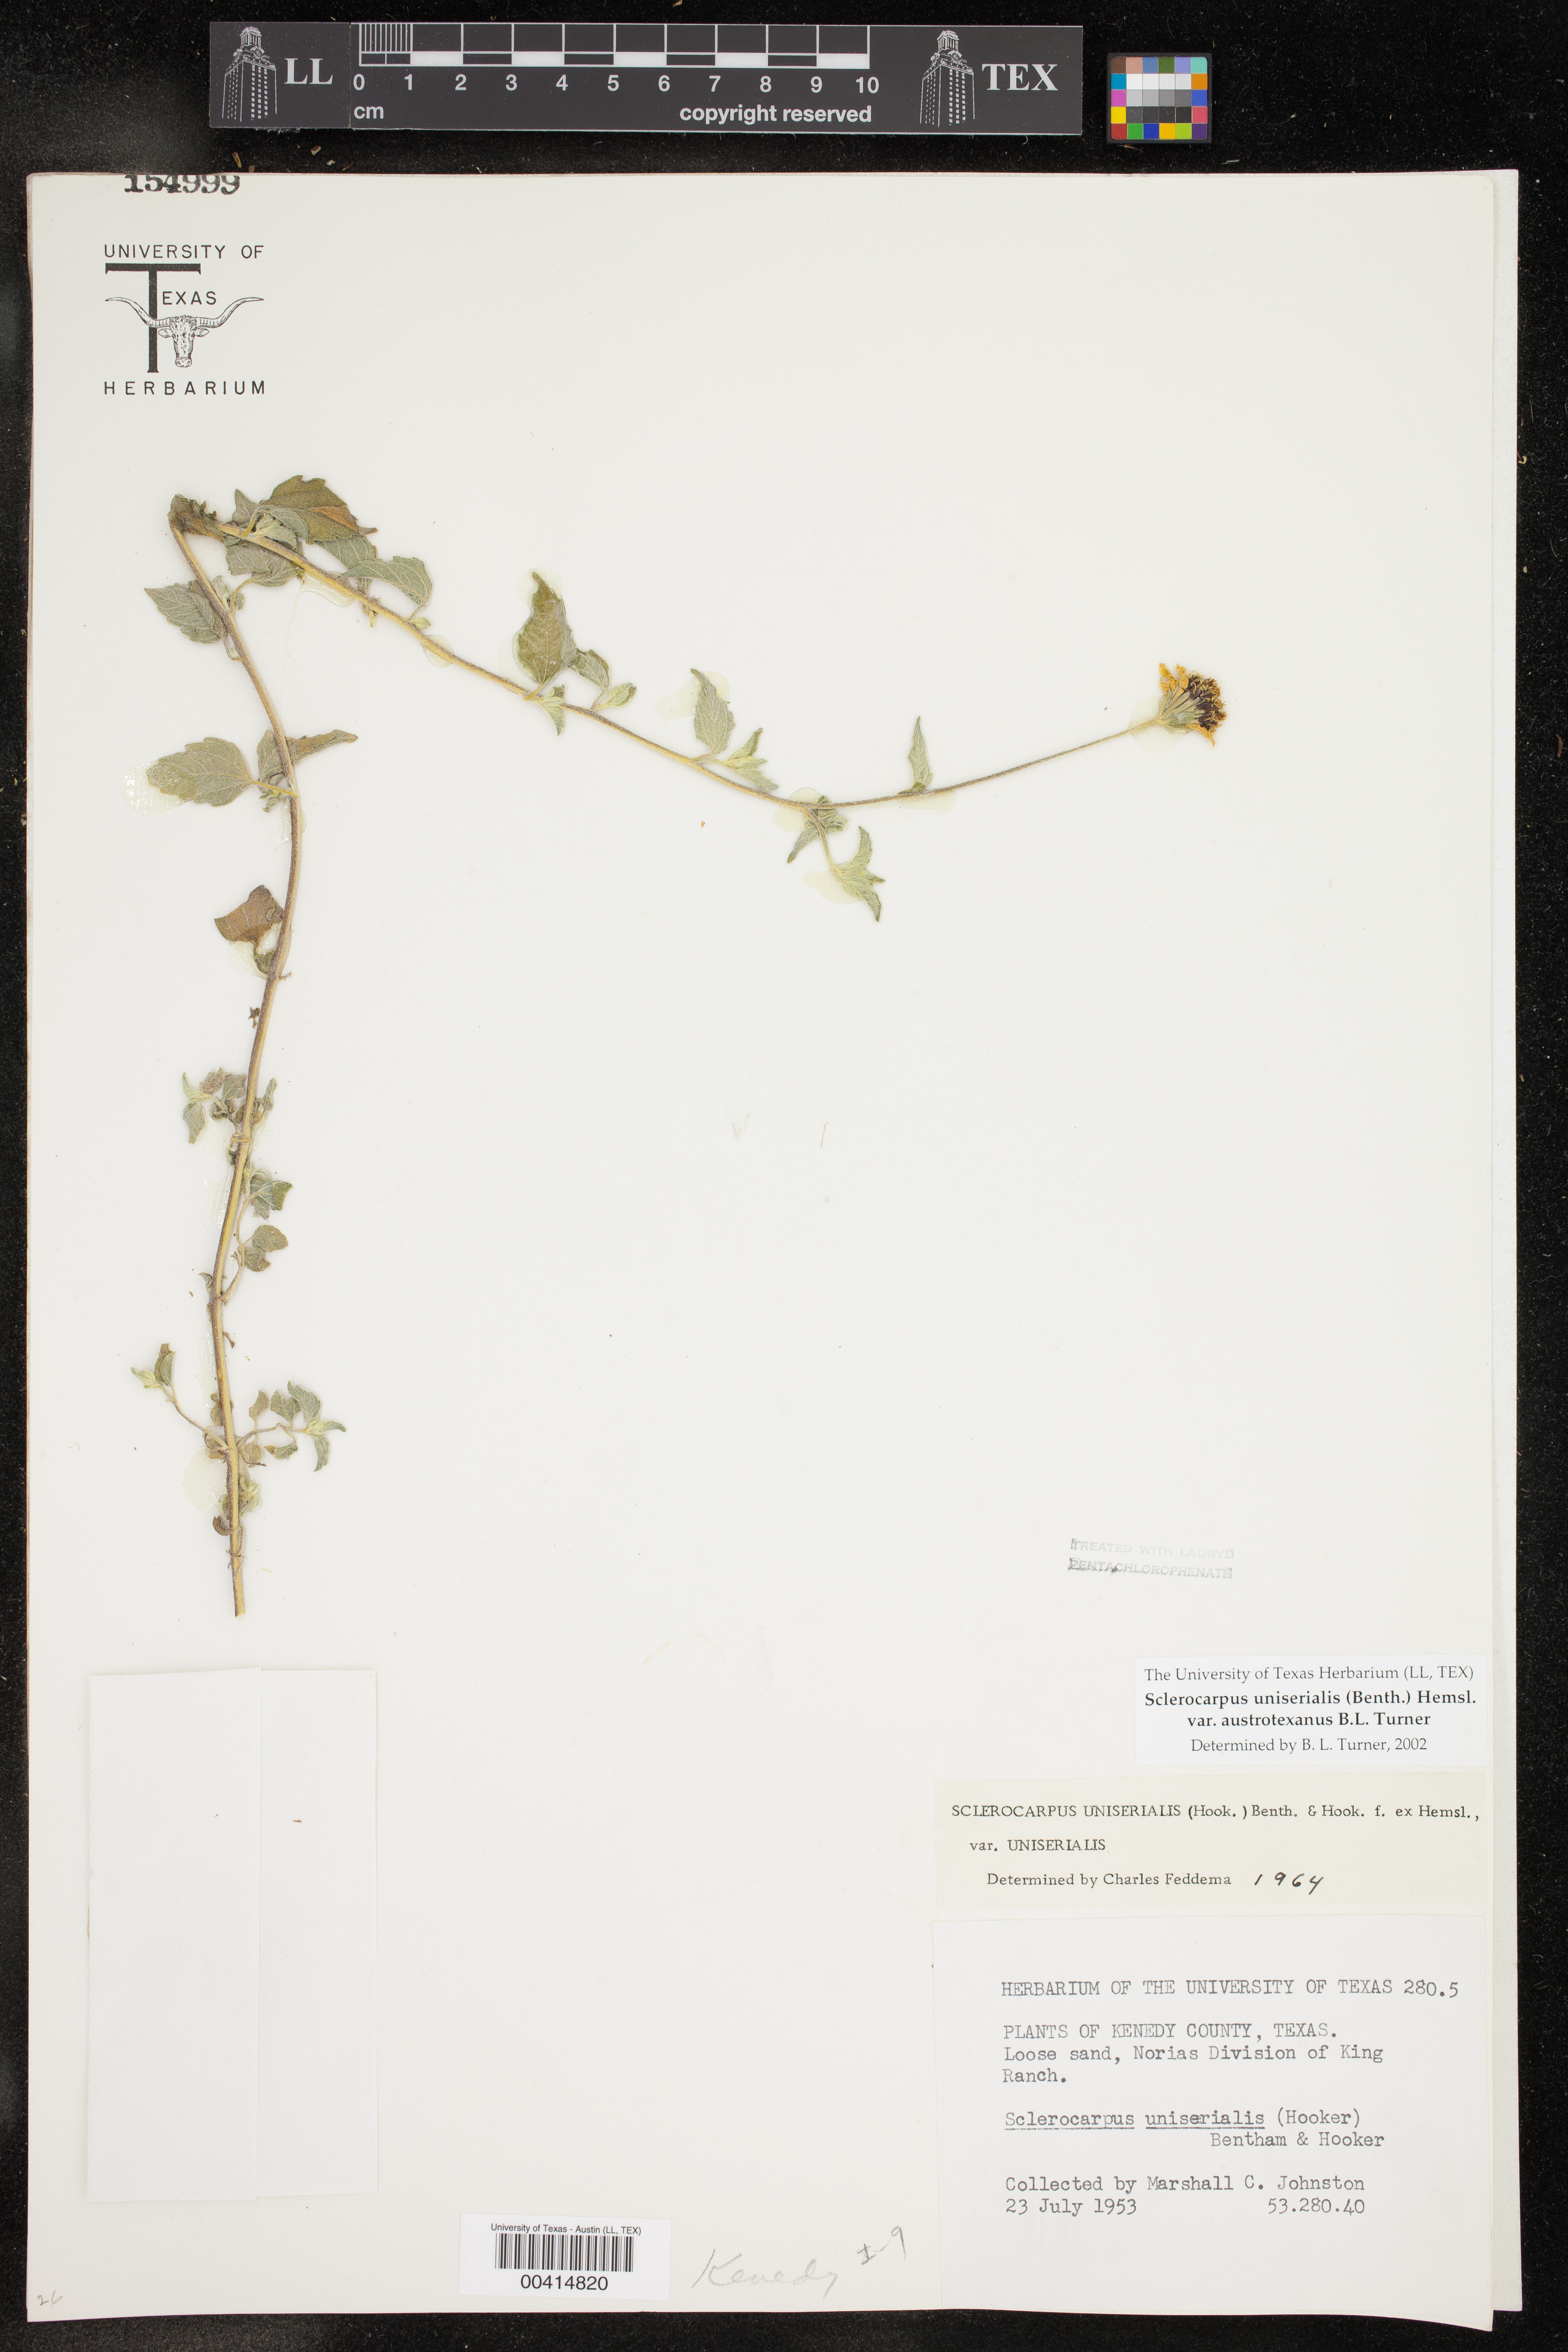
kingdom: Plantae
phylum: Tracheophyta
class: Magnoliopsida
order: Asterales
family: Asteraceae
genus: Sclerocarpus
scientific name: Sclerocarpus uniserialis
